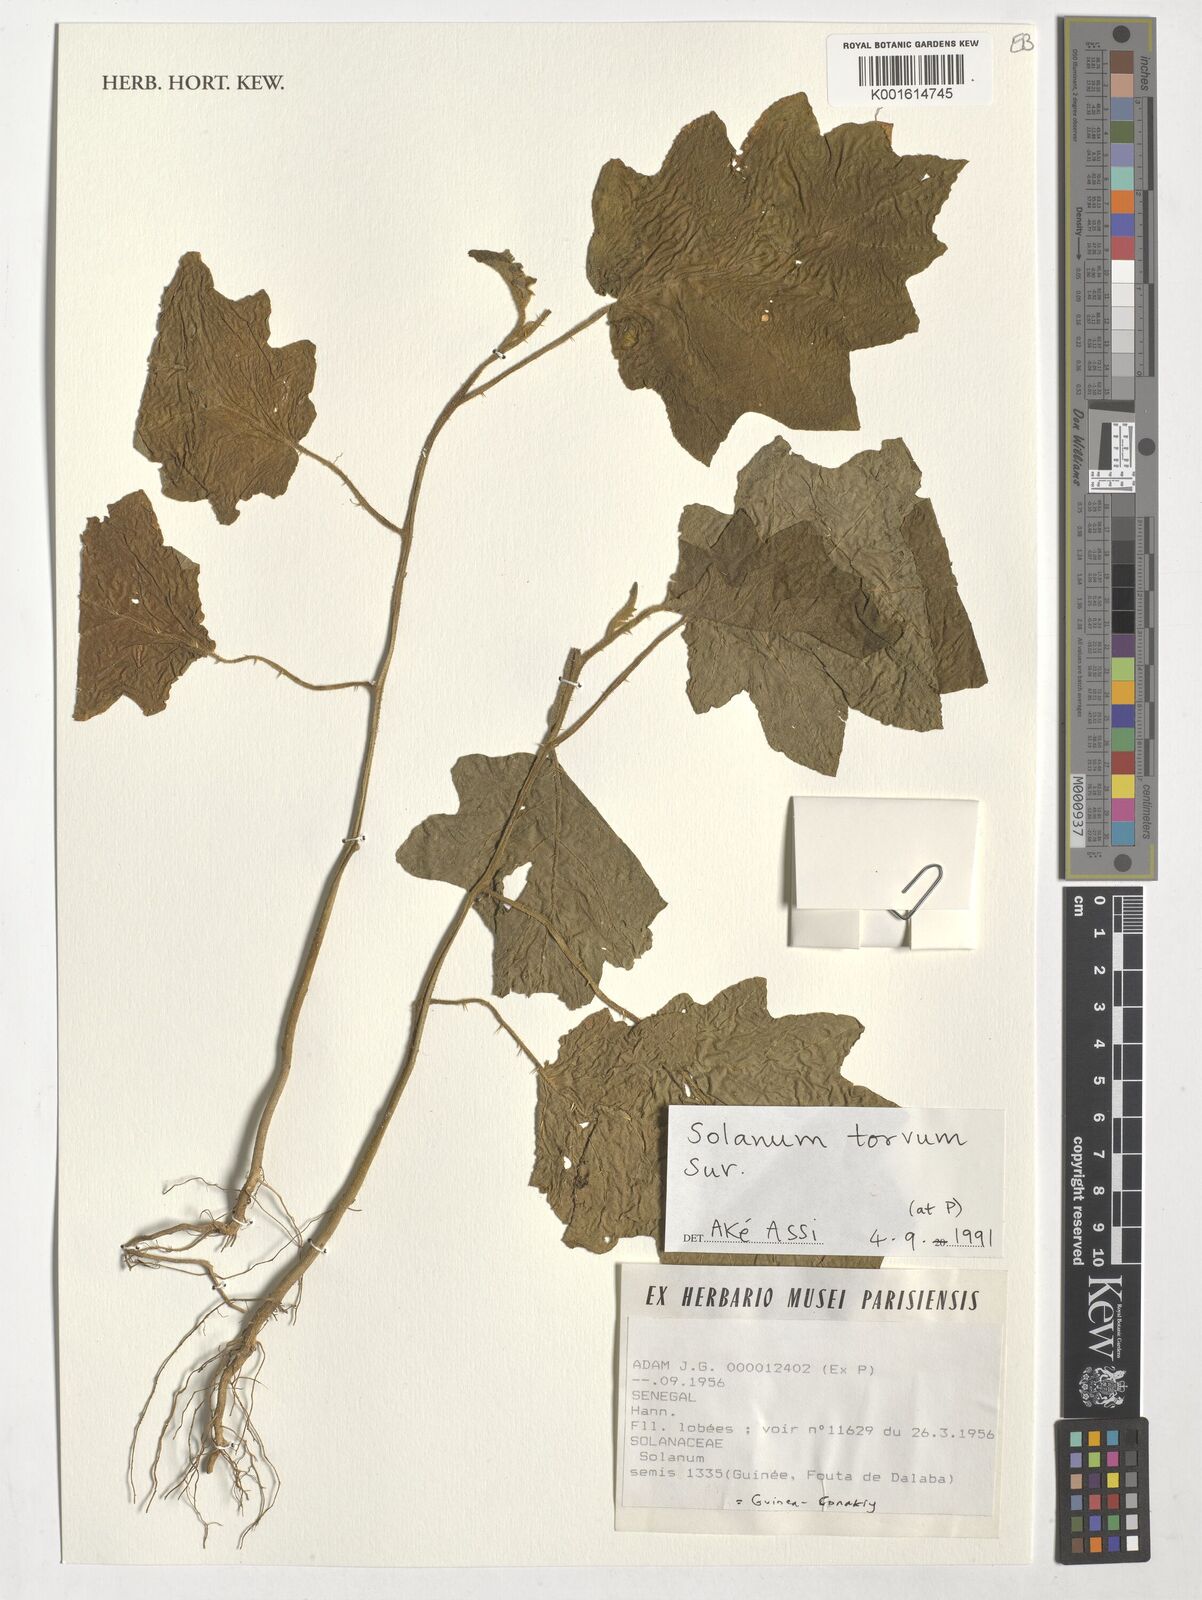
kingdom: Plantae
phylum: Tracheophyta
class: Magnoliopsida
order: Solanales
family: Solanaceae
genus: Solanum
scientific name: Solanum torvum
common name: Turkey berry
